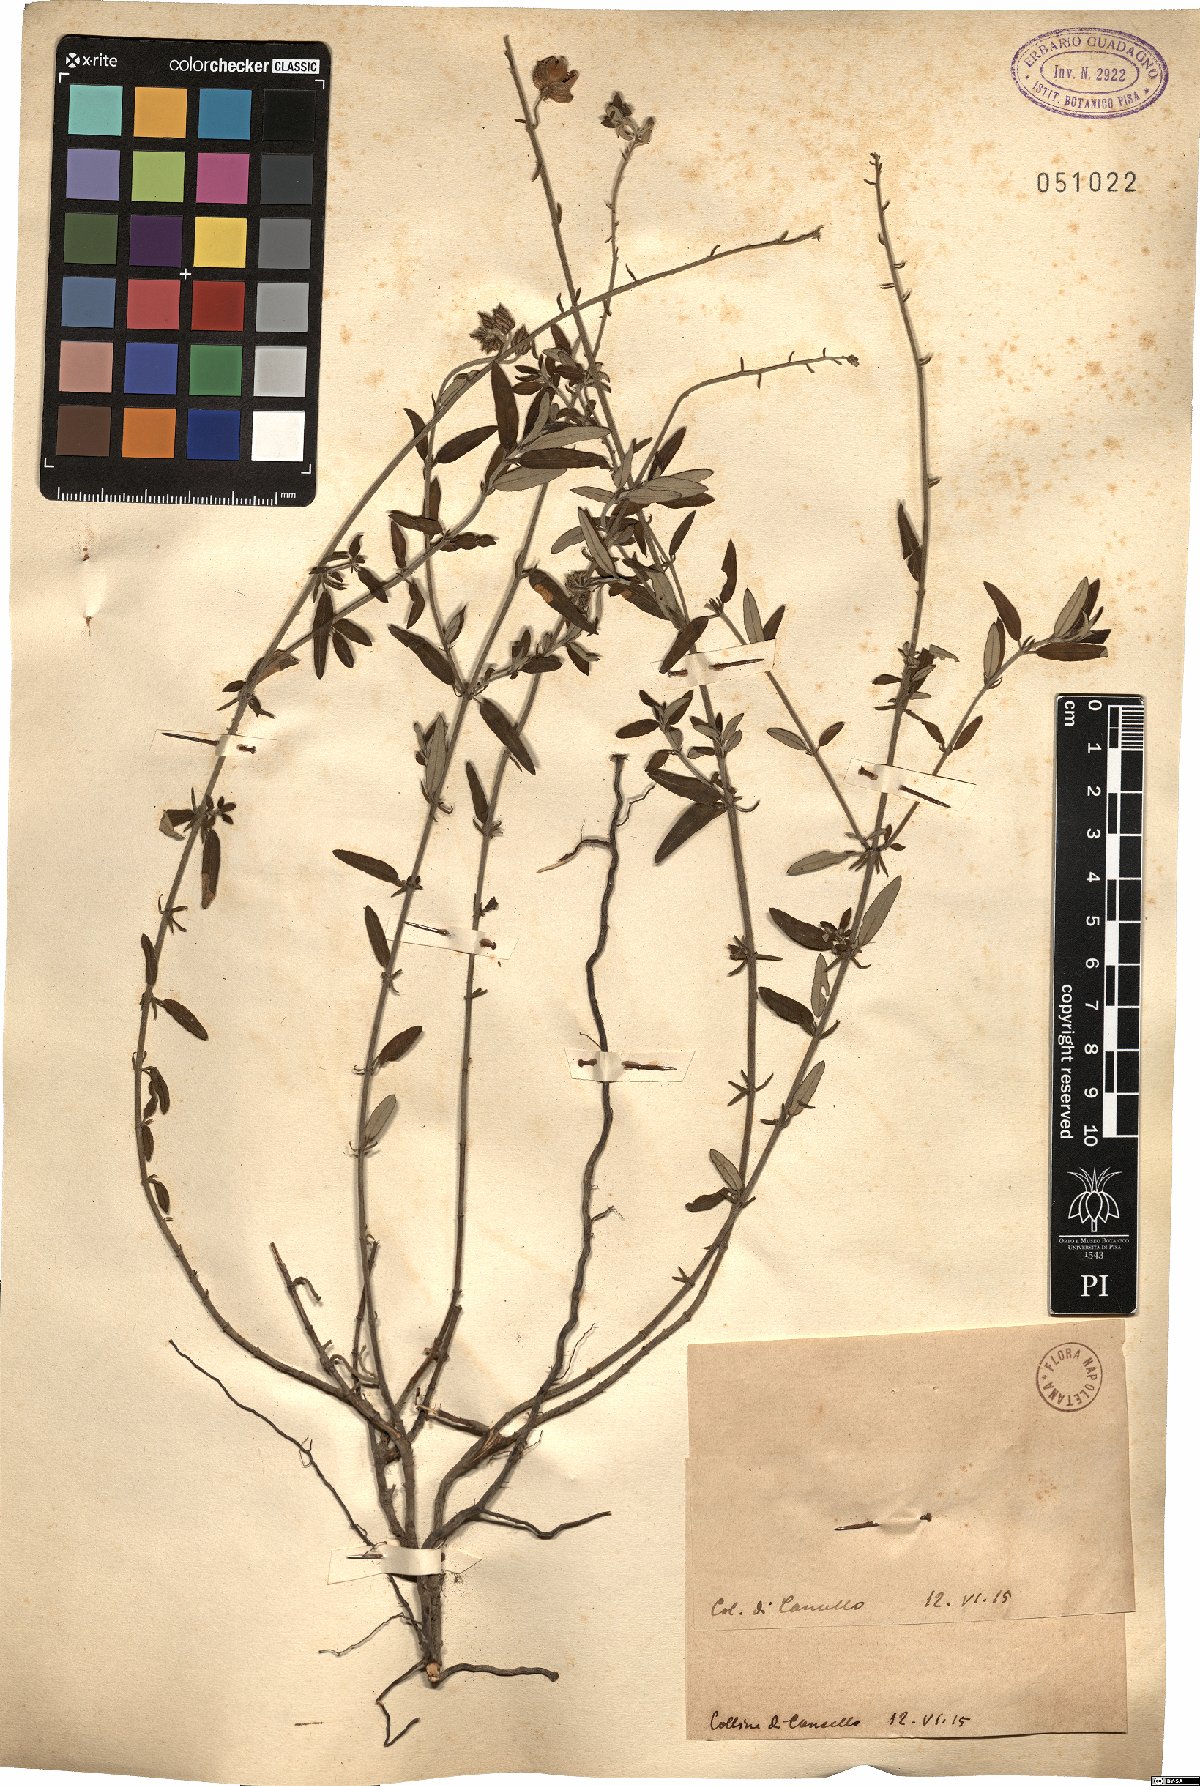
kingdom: Plantae
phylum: Tracheophyta
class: Magnoliopsida
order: Malvales
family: Cistaceae
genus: Helianthemum
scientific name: Helianthemum
